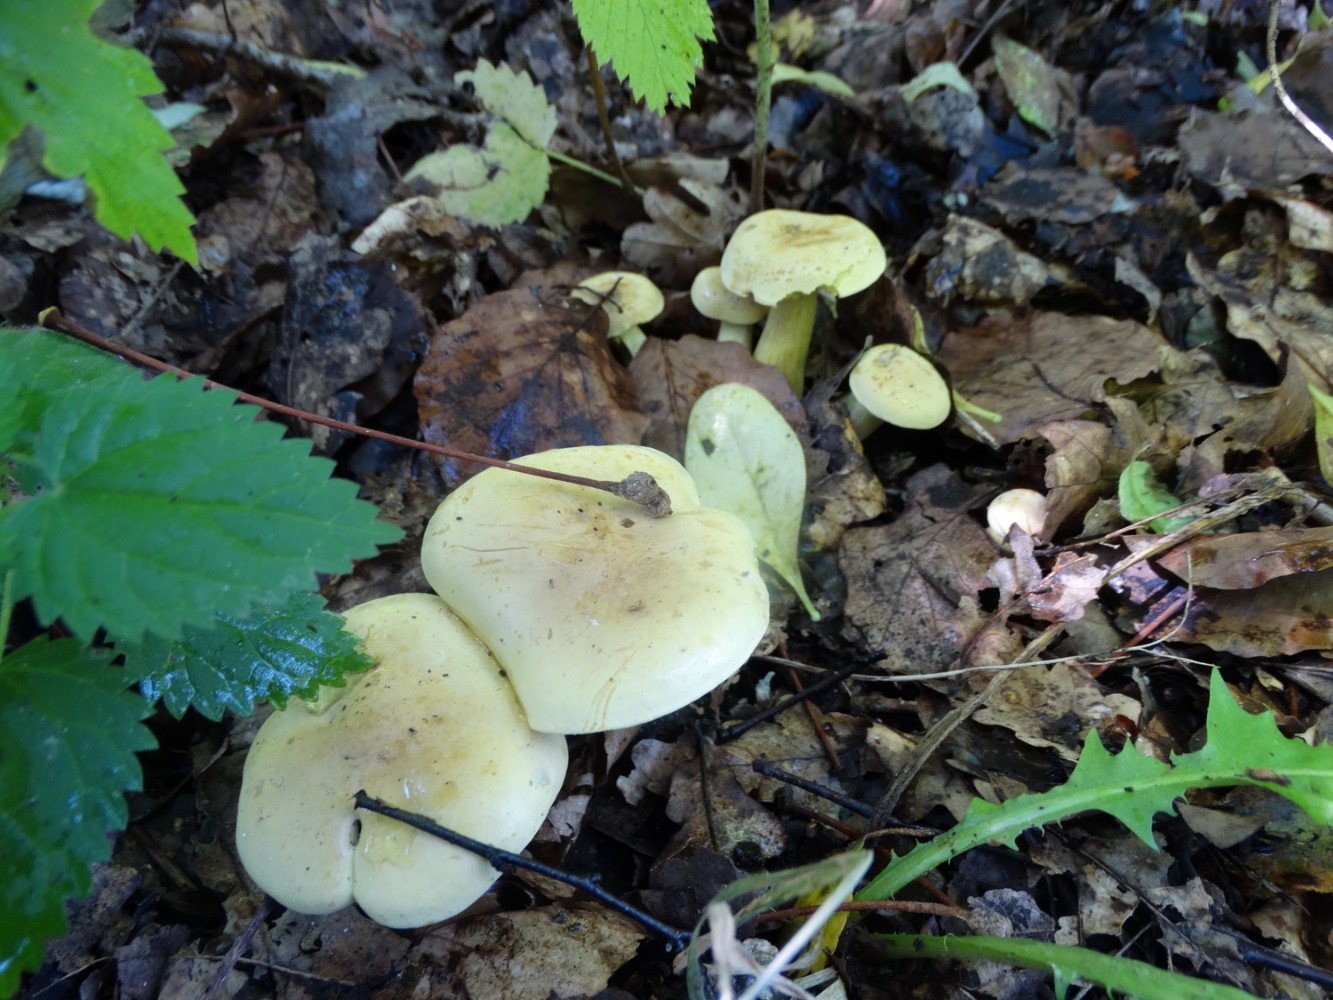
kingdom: Fungi
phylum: Basidiomycota
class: Agaricomycetes
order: Agaricales
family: Tricholomataceae
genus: Tricholoma
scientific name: Tricholoma sulphureum
